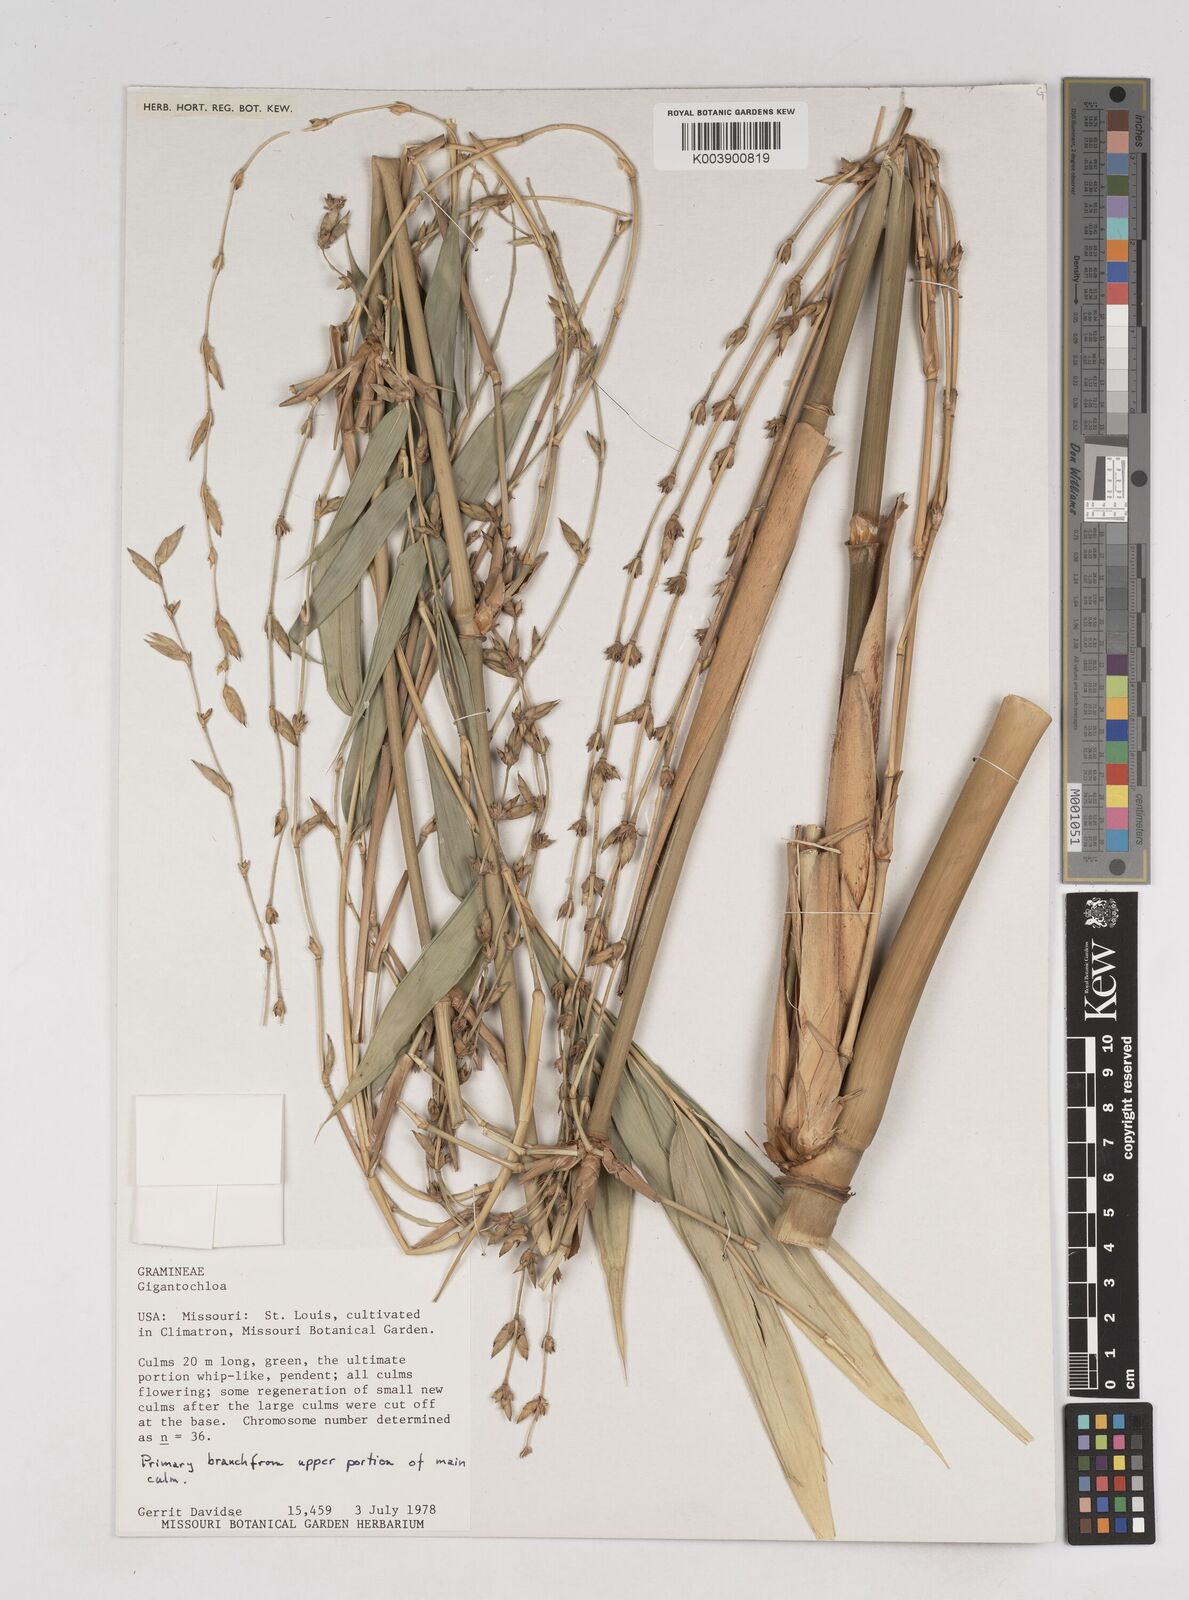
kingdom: Plantae
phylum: Tracheophyta
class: Liliopsida
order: Poales
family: Poaceae
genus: Gigantochloa
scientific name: Gigantochloa
